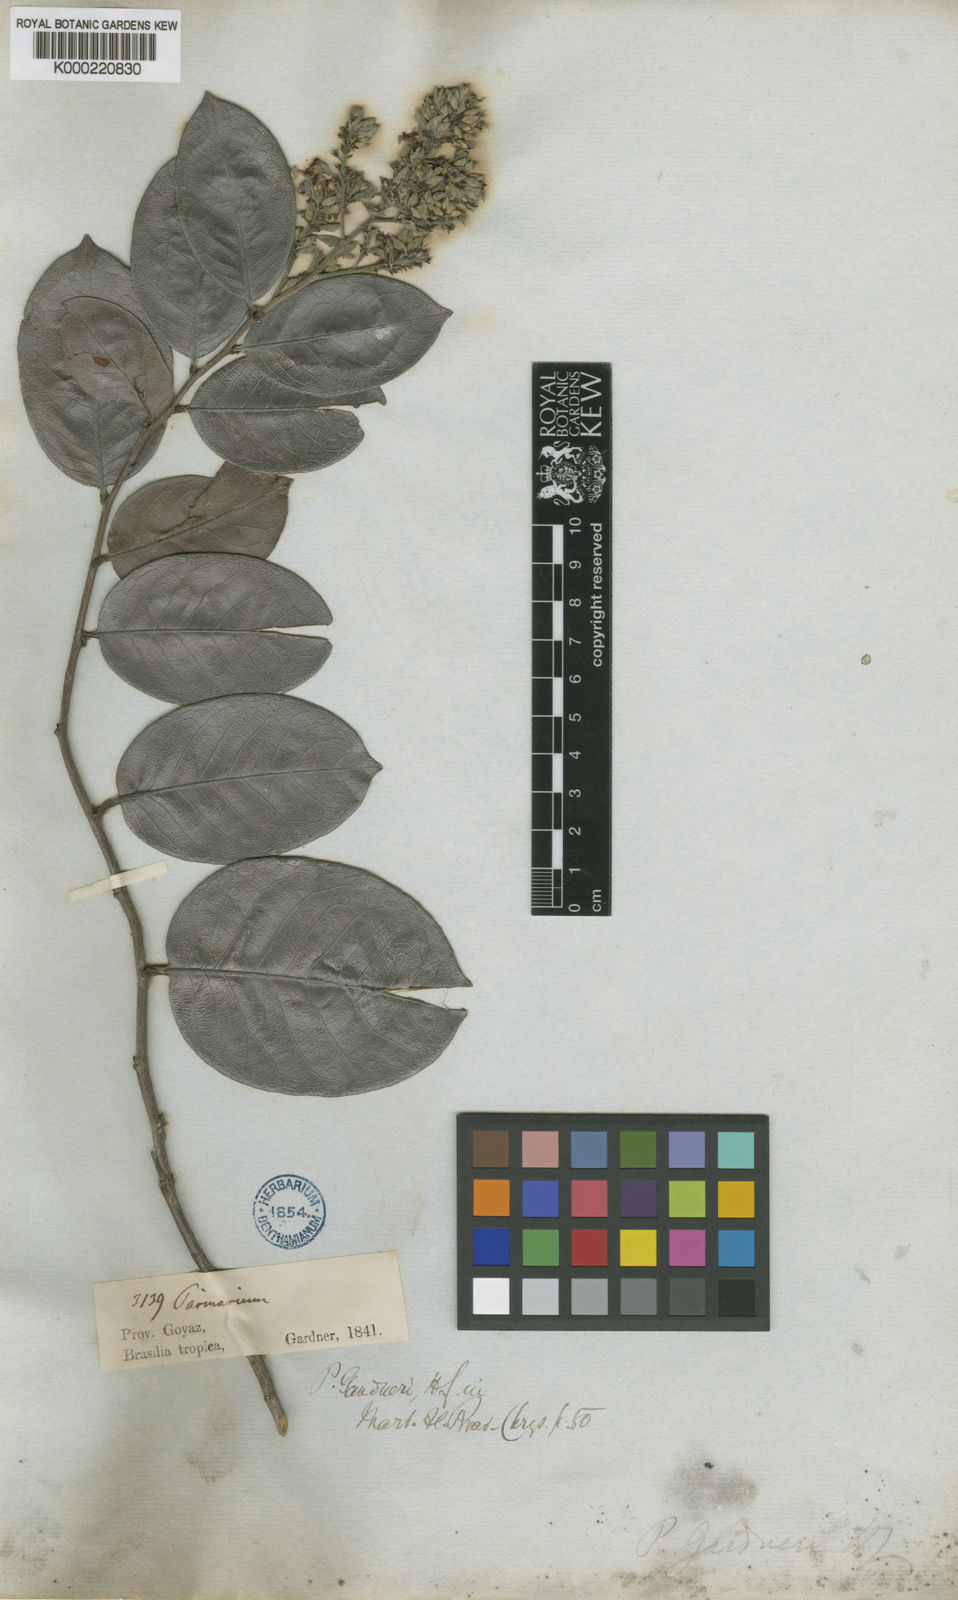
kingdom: Plantae
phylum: Tracheophyta
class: Magnoliopsida
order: Malpighiales
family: Chrysobalanaceae
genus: Exellodendron
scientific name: Exellodendron gardneri
